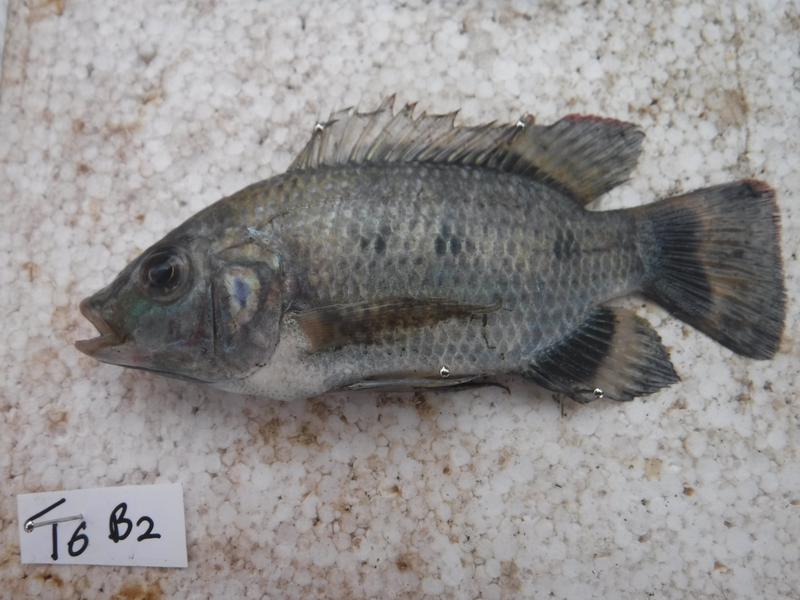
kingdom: Animalia
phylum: Chordata
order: Perciformes
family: Cichlidae
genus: Oreochromis
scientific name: Oreochromis urolepis
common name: Wami tilapia
